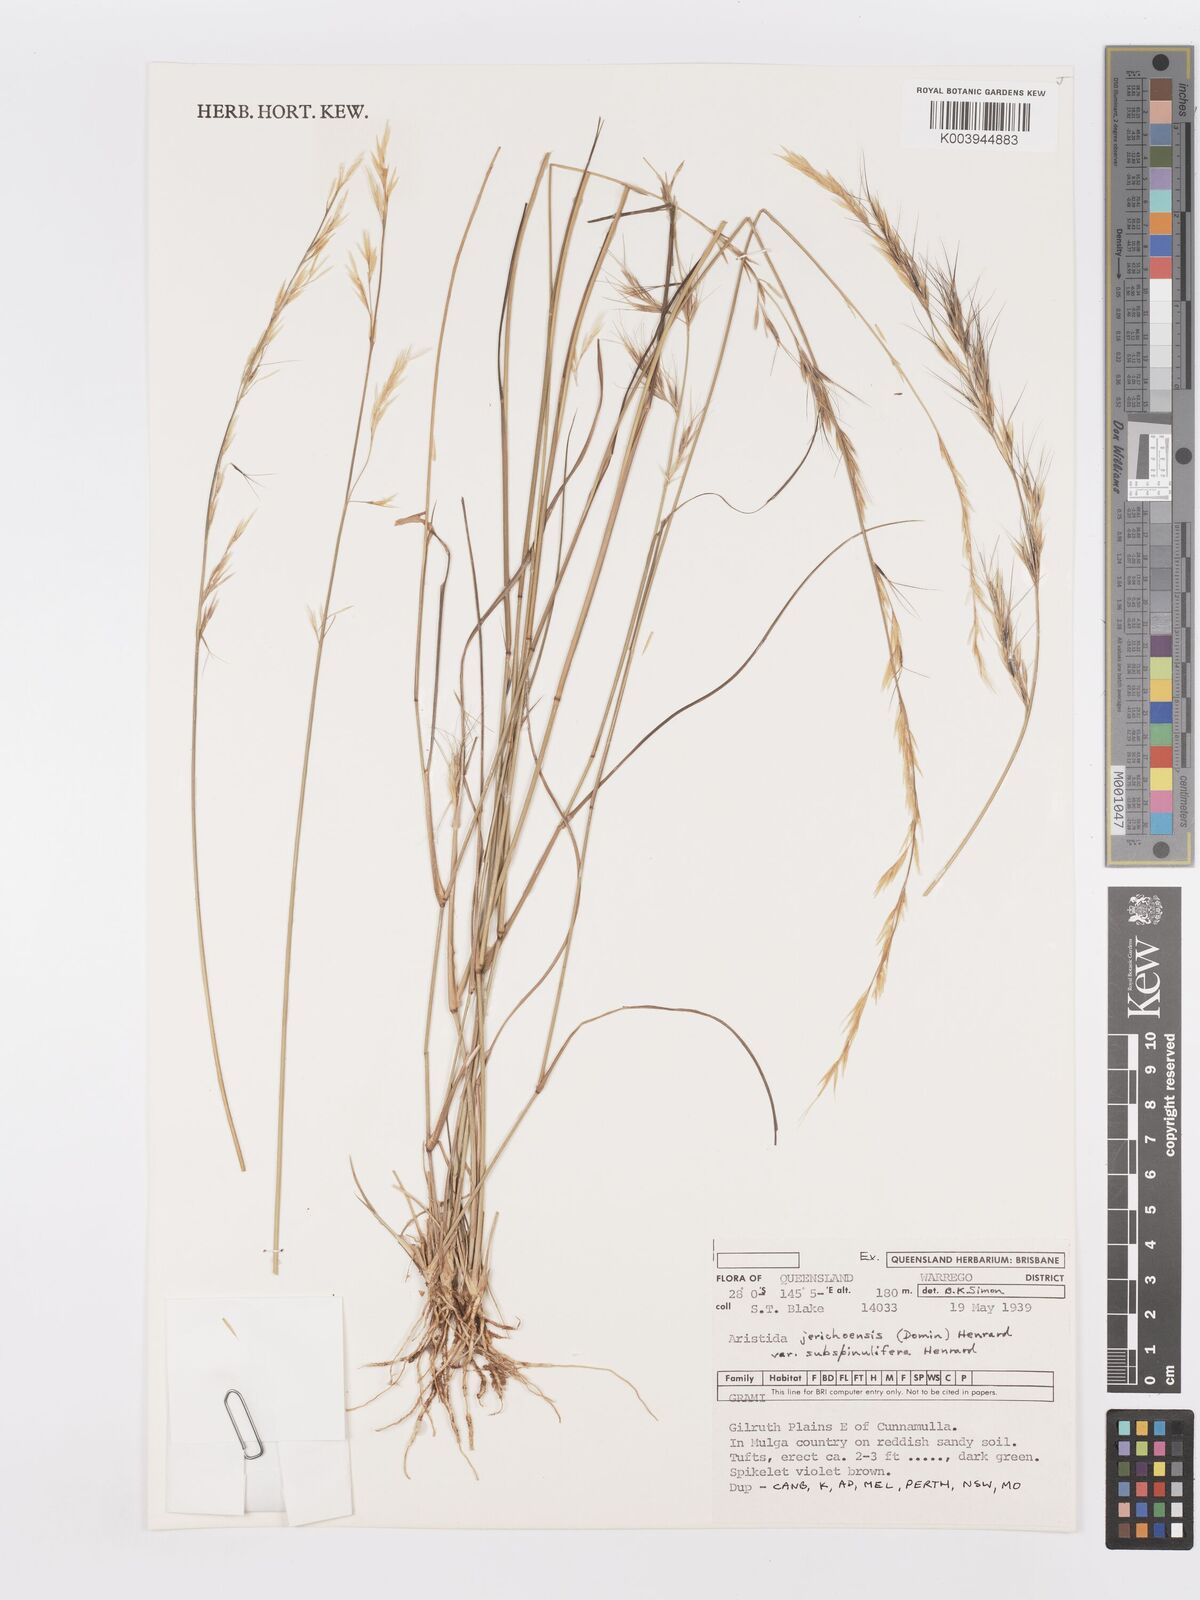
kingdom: Plantae
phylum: Tracheophyta
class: Liliopsida
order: Poales
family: Poaceae
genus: Aristida
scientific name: Aristida jerichoensis
